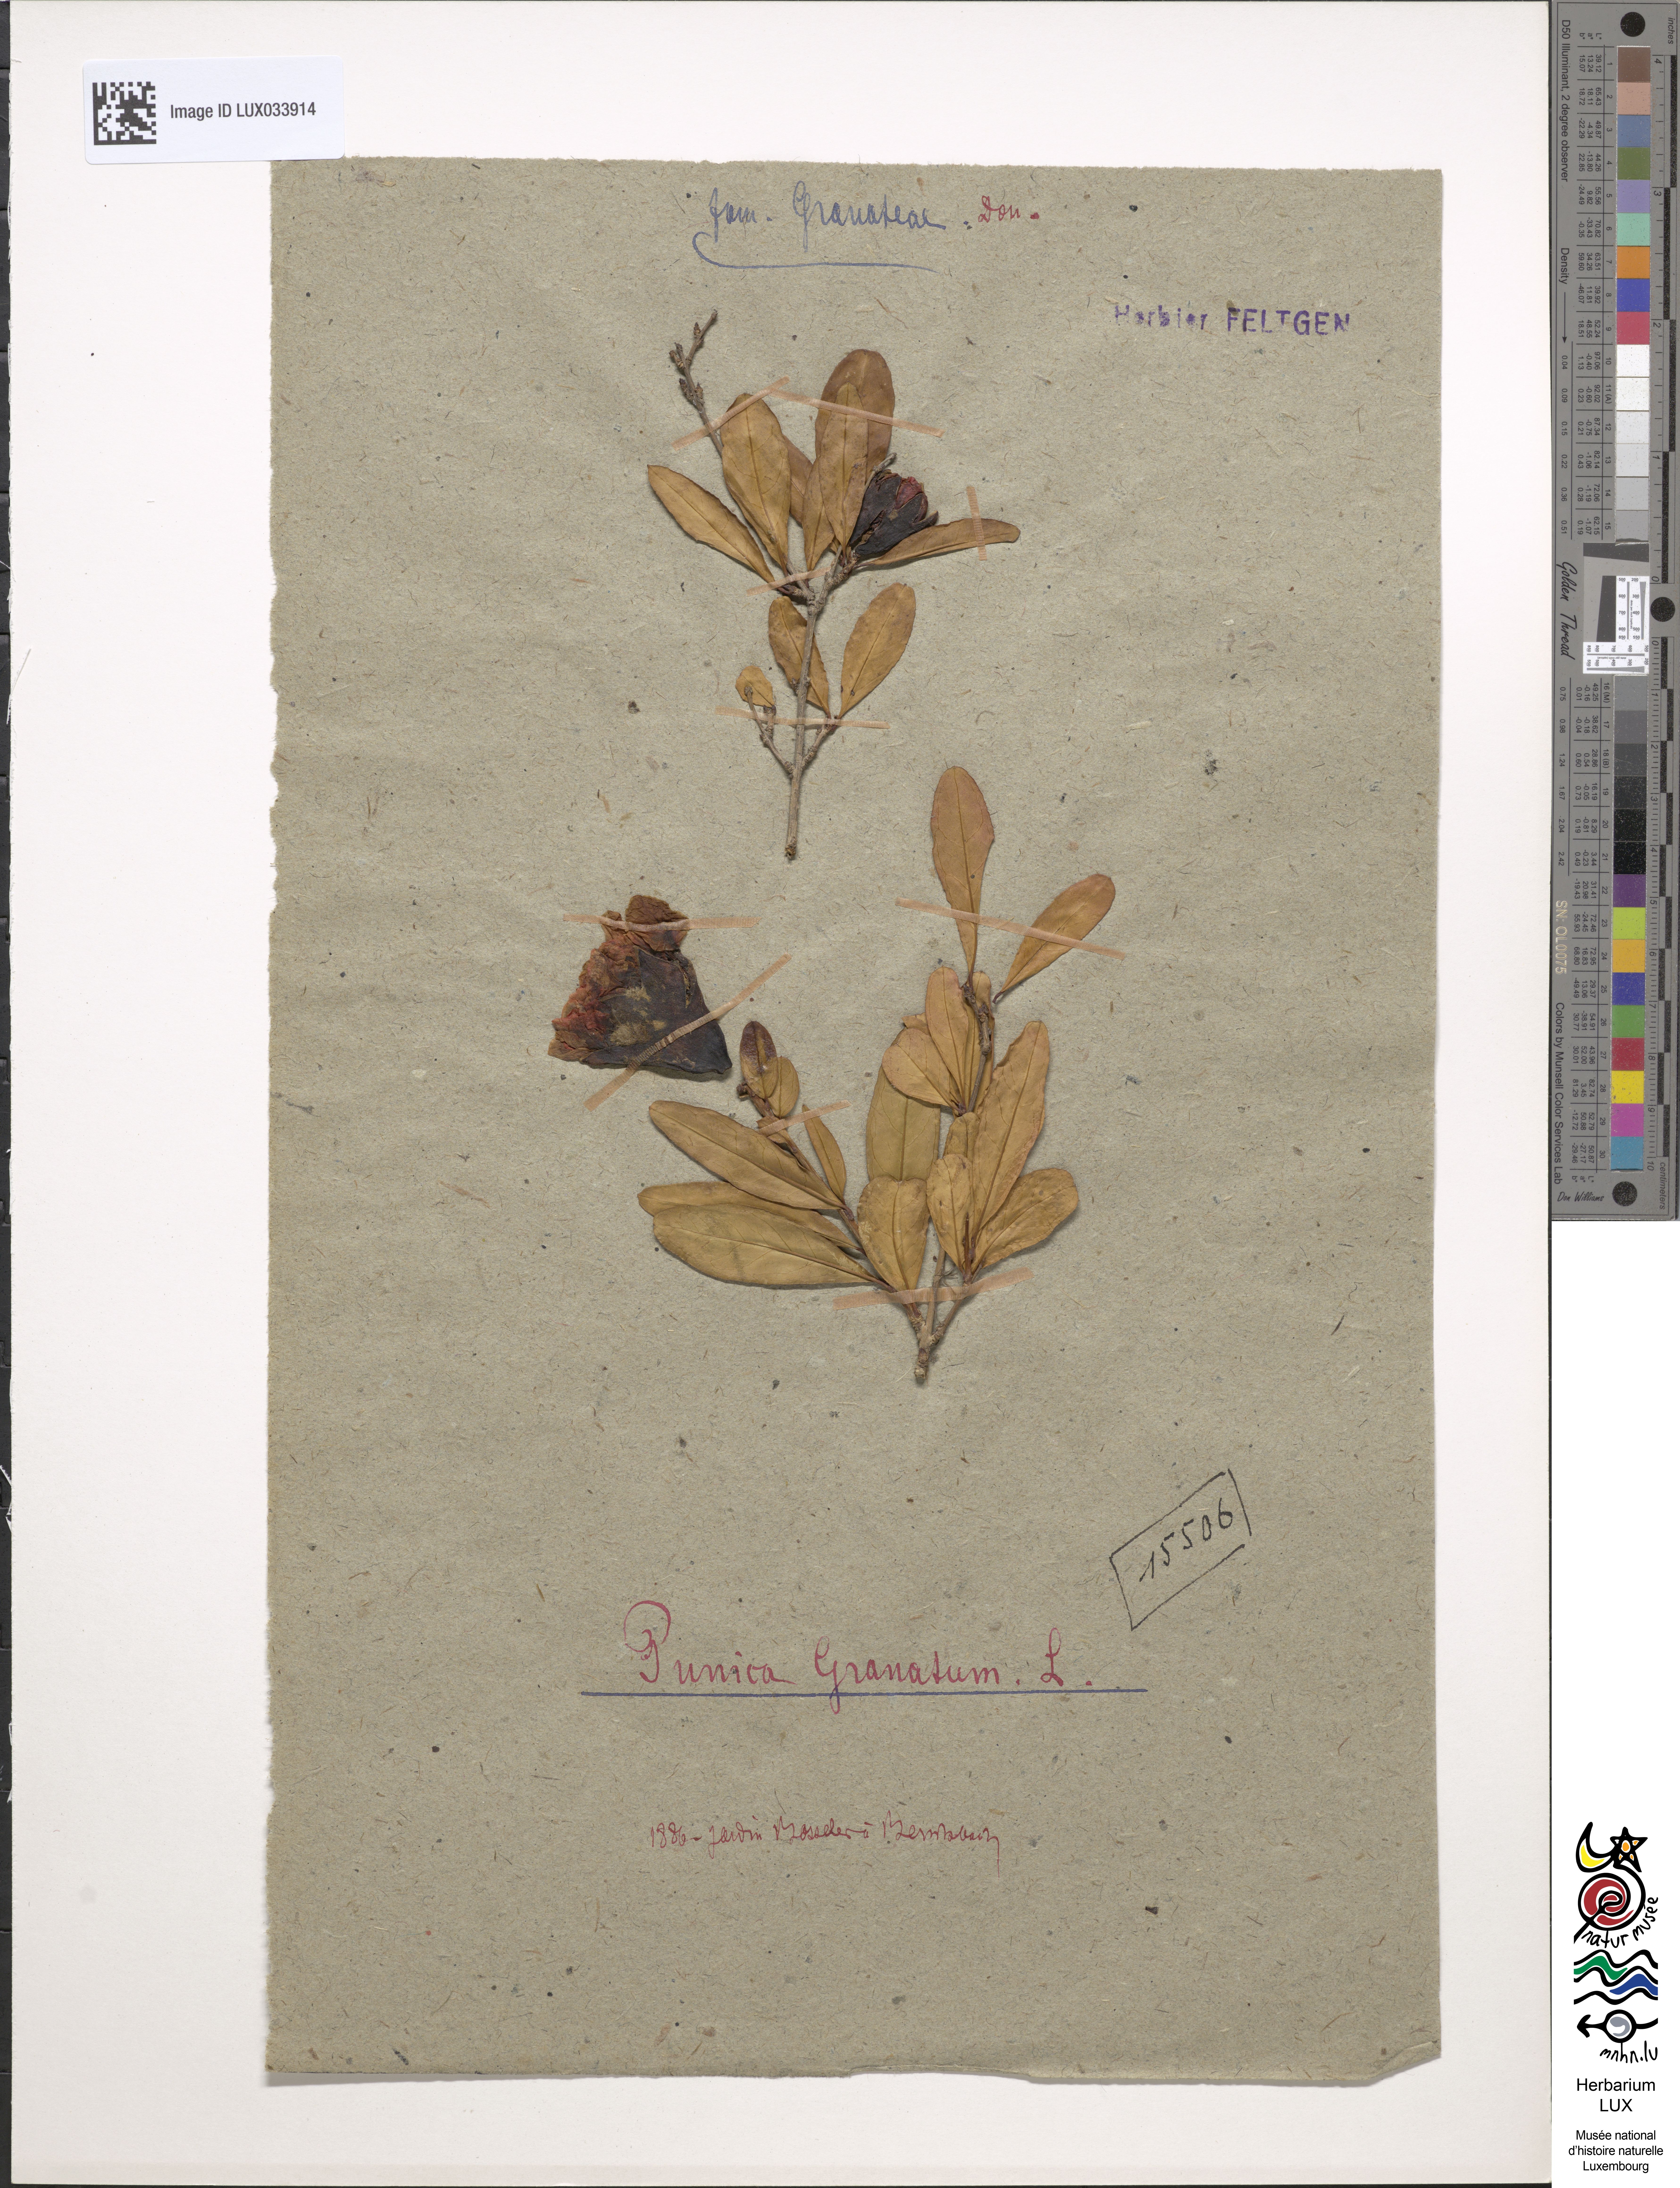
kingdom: Plantae
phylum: Tracheophyta
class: Magnoliopsida
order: Myrtales
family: Lythraceae
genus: Punica
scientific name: Punica granatum
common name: Pomegranate
